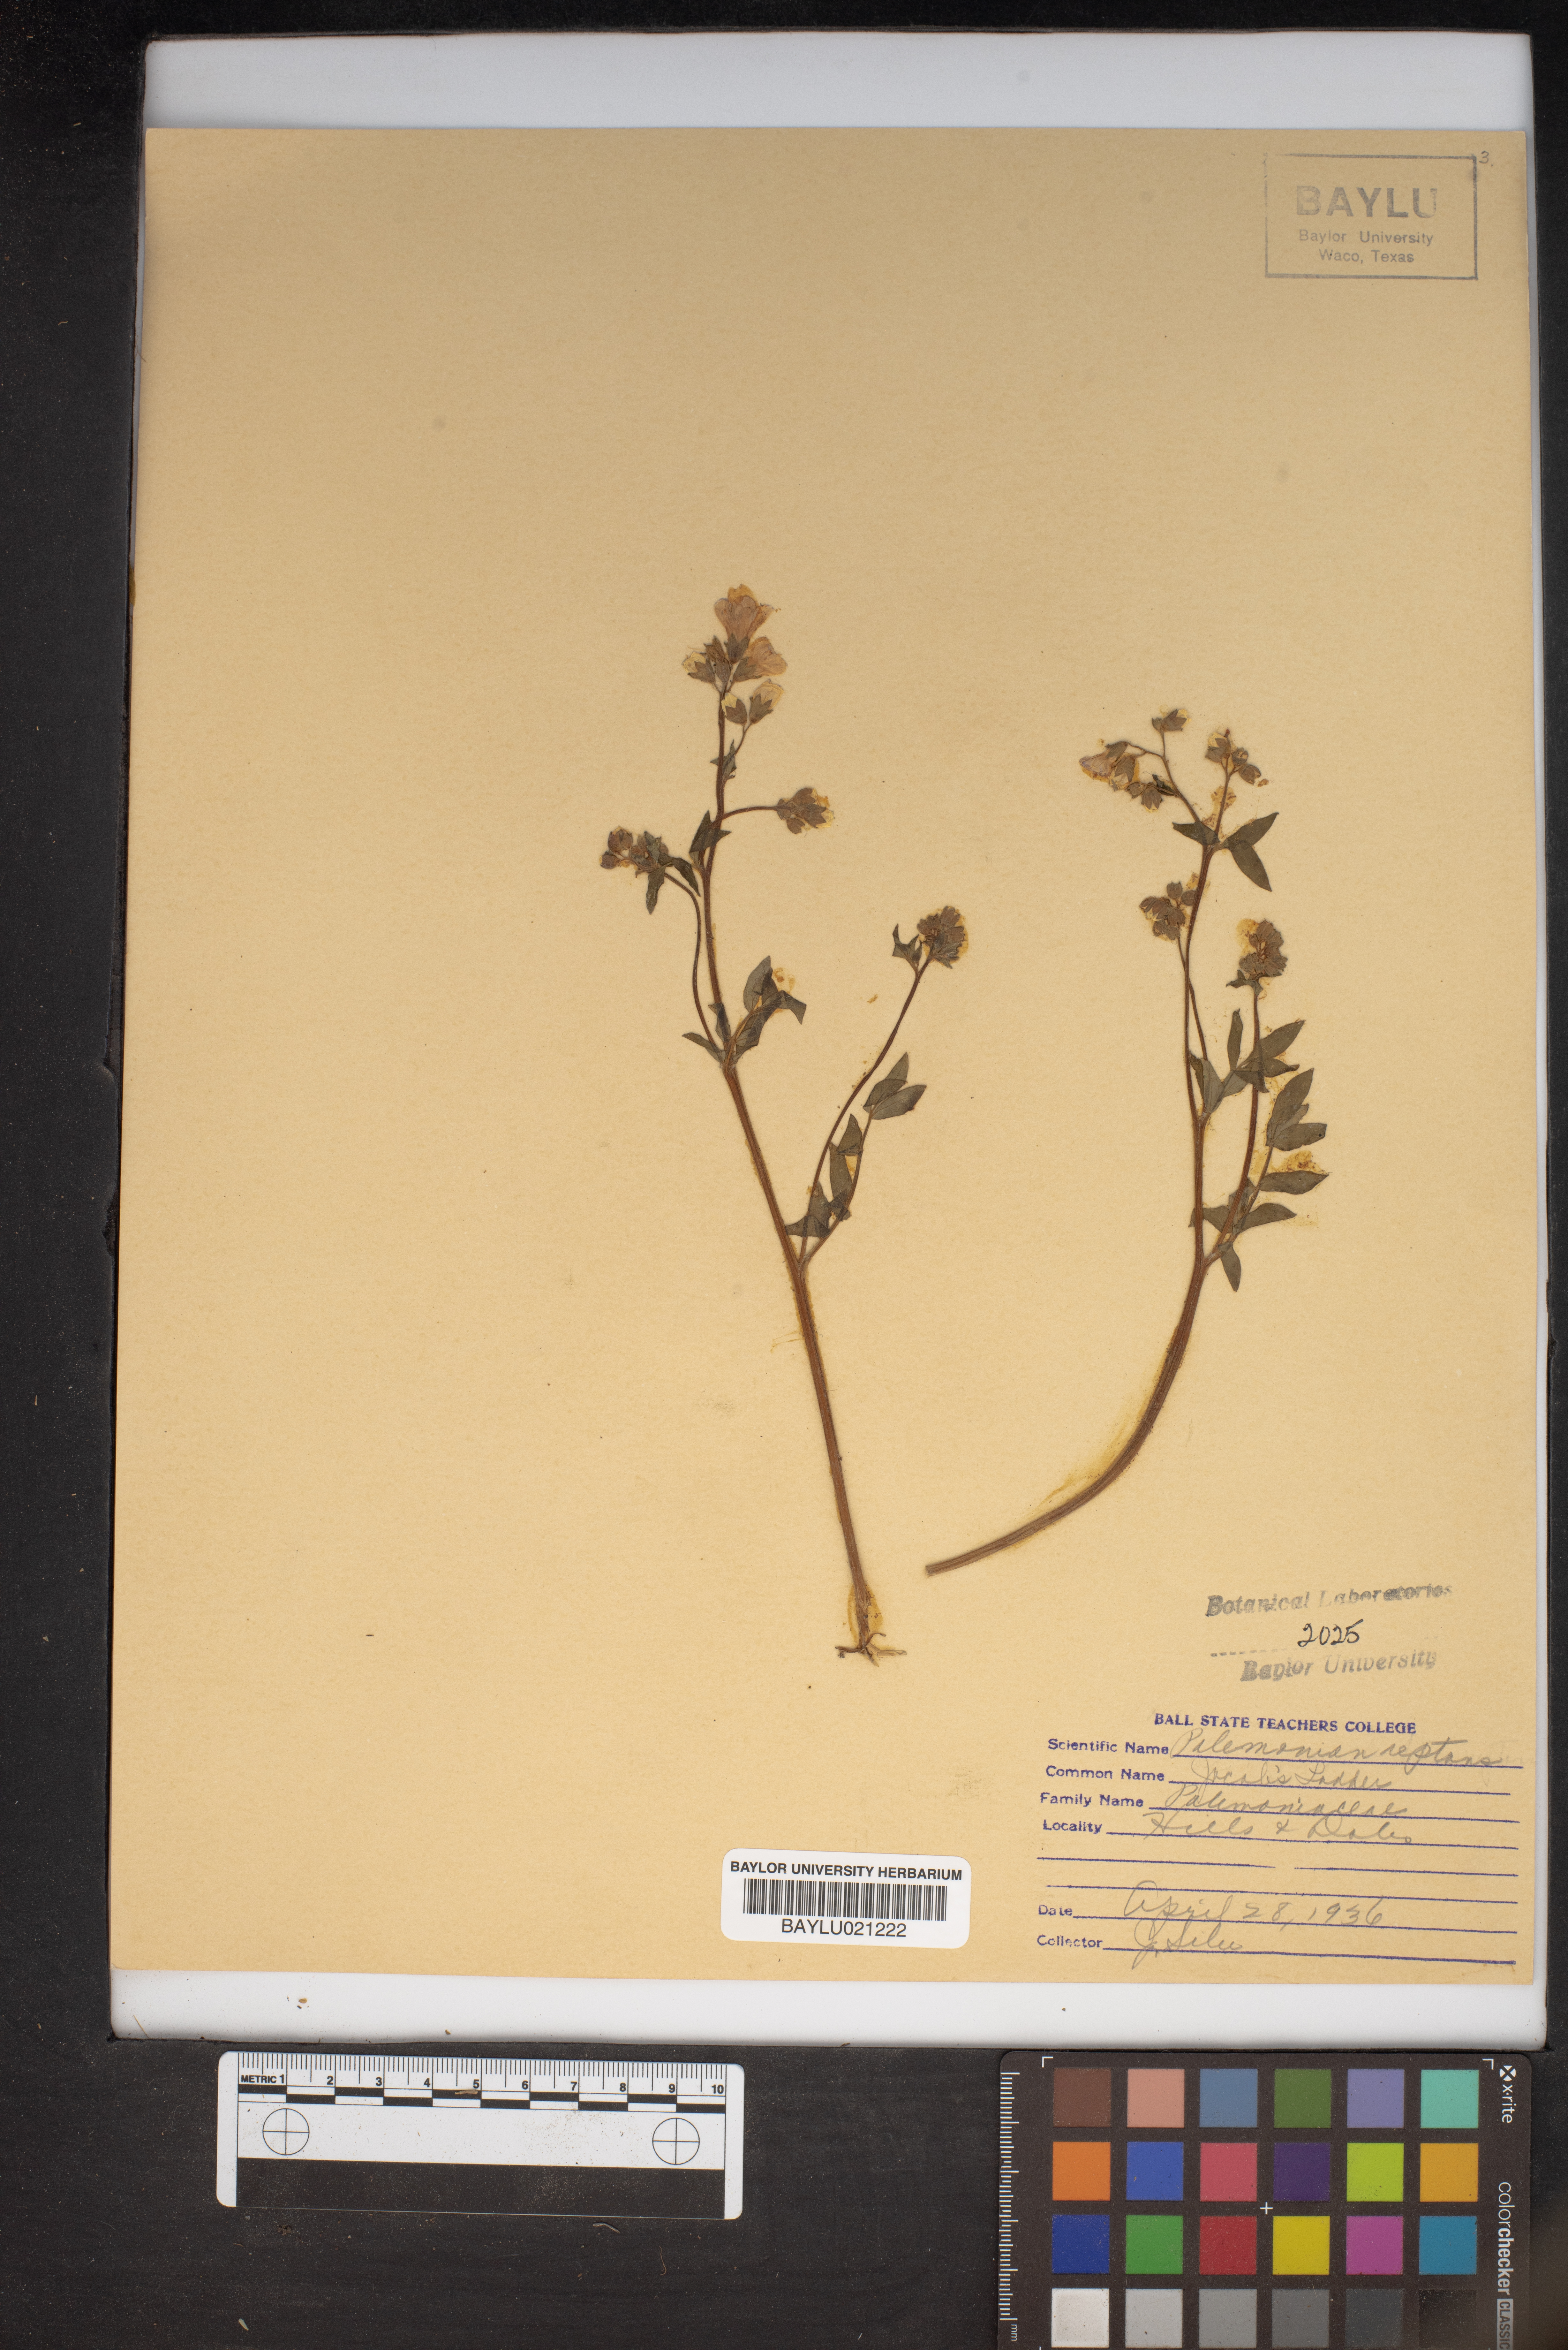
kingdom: Plantae
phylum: Tracheophyta
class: Magnoliopsida
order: Ericales
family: Polemoniaceae
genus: Polemonium
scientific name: Polemonium reptans
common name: Creeping jacob's-ladder
